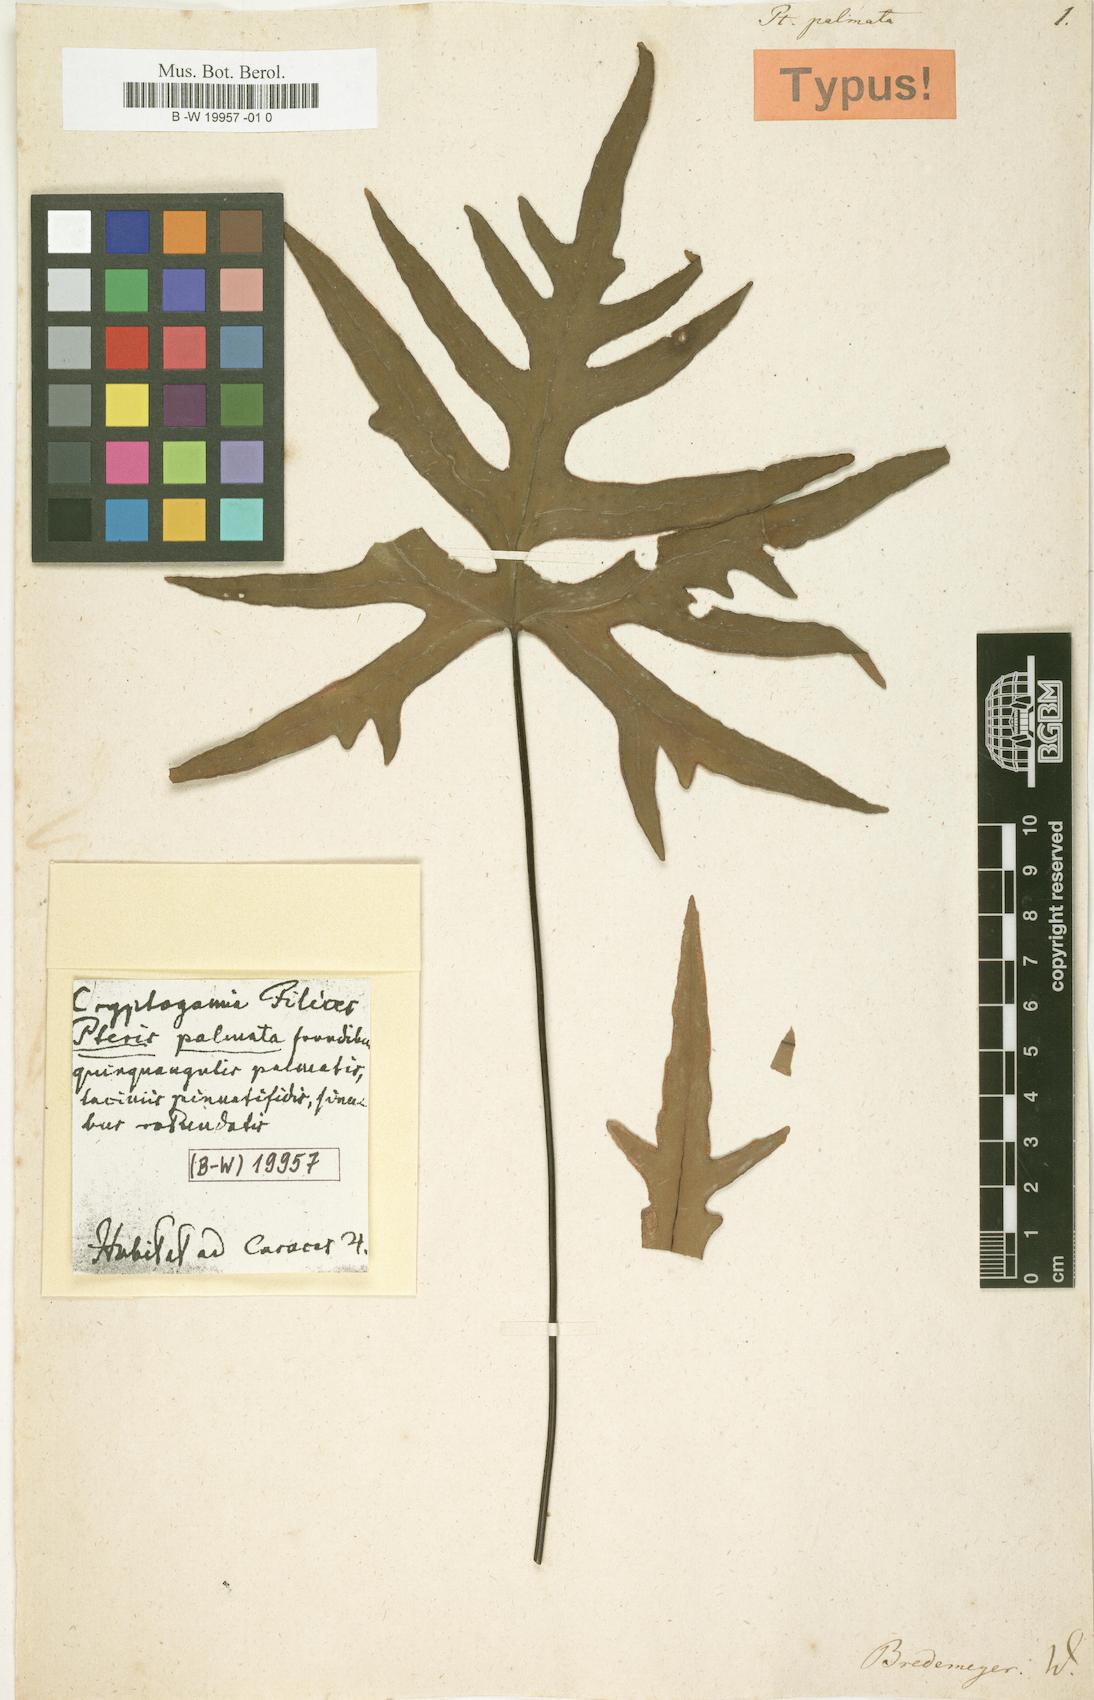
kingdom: Plantae
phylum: Tracheophyta
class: Polypodiopsida
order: Polypodiales
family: Pteridaceae
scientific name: Pteridaceae
